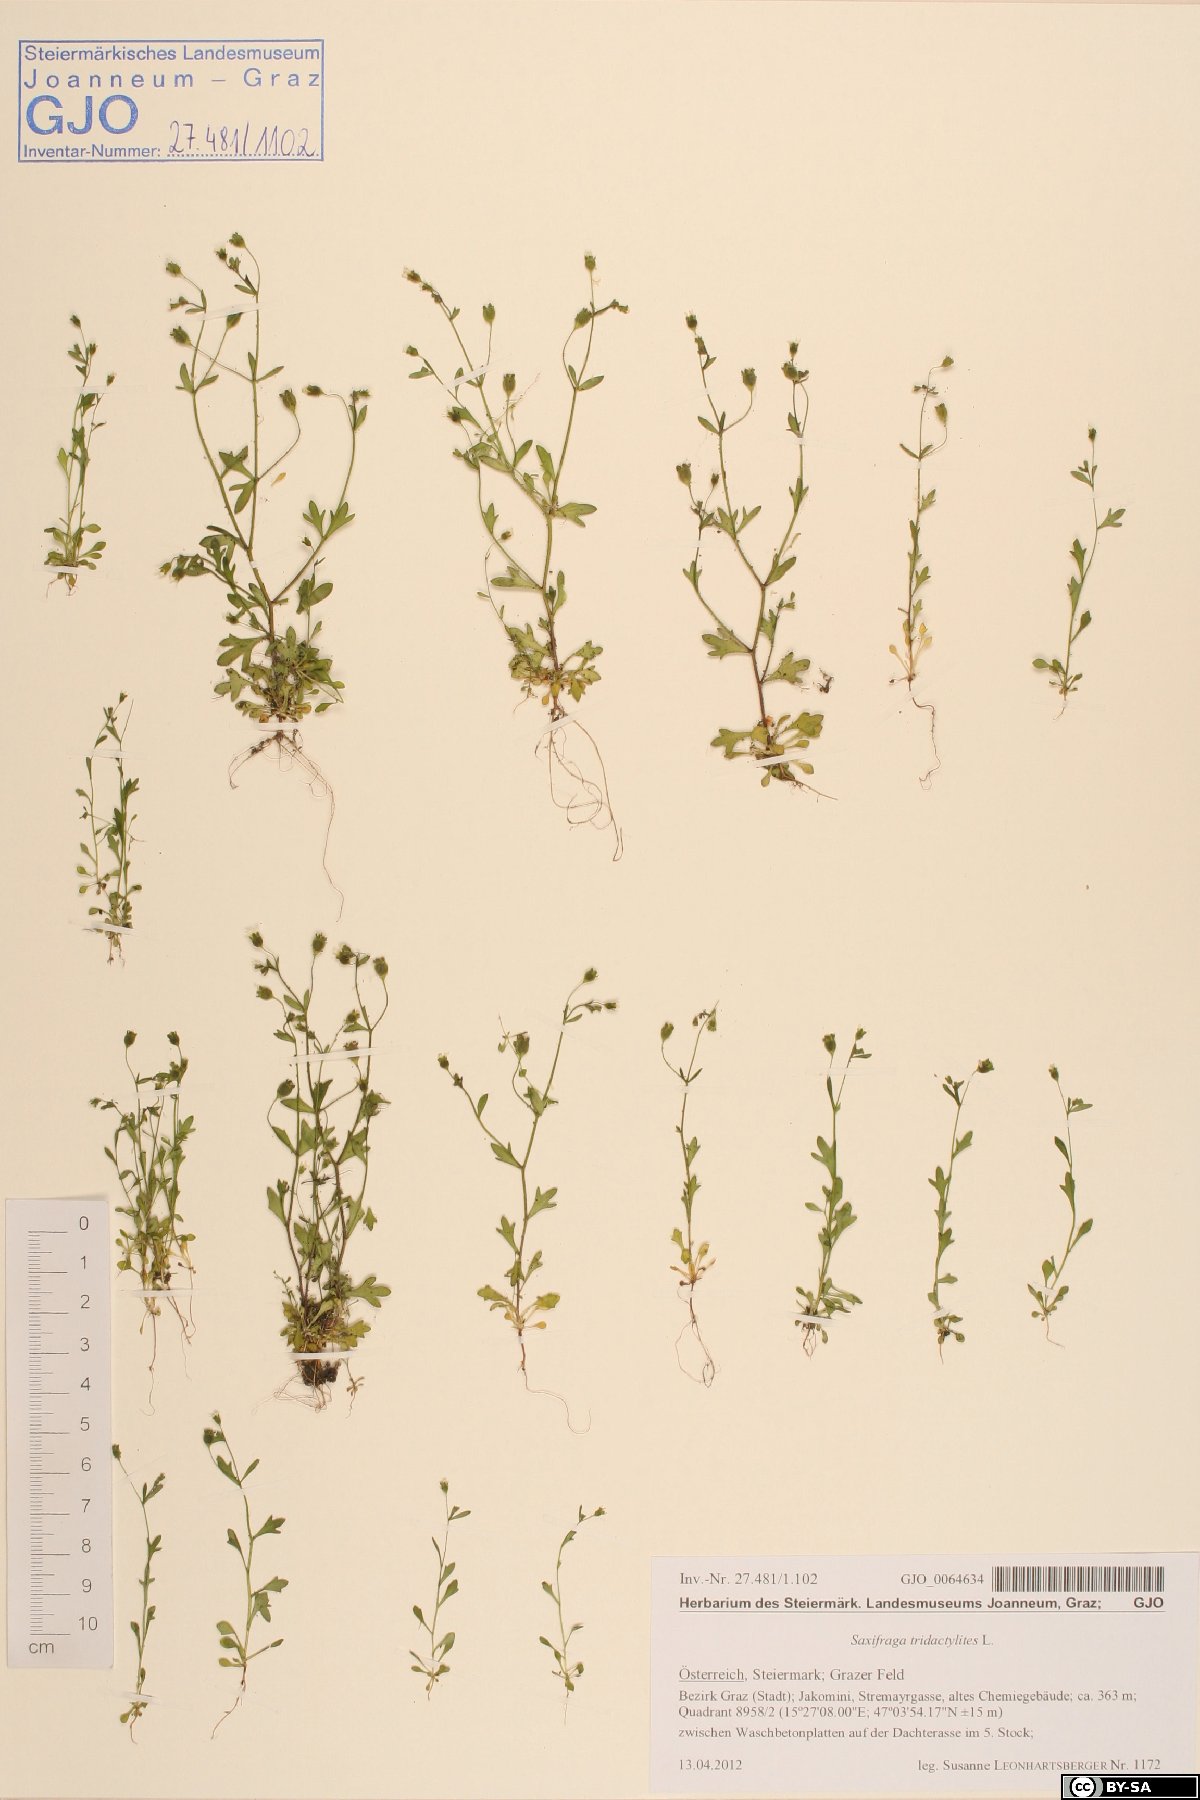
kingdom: Plantae
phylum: Tracheophyta
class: Magnoliopsida
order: Saxifragales
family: Saxifragaceae
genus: Saxifraga
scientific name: Saxifraga tridactylites
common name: Rue-leaved saxifrage
